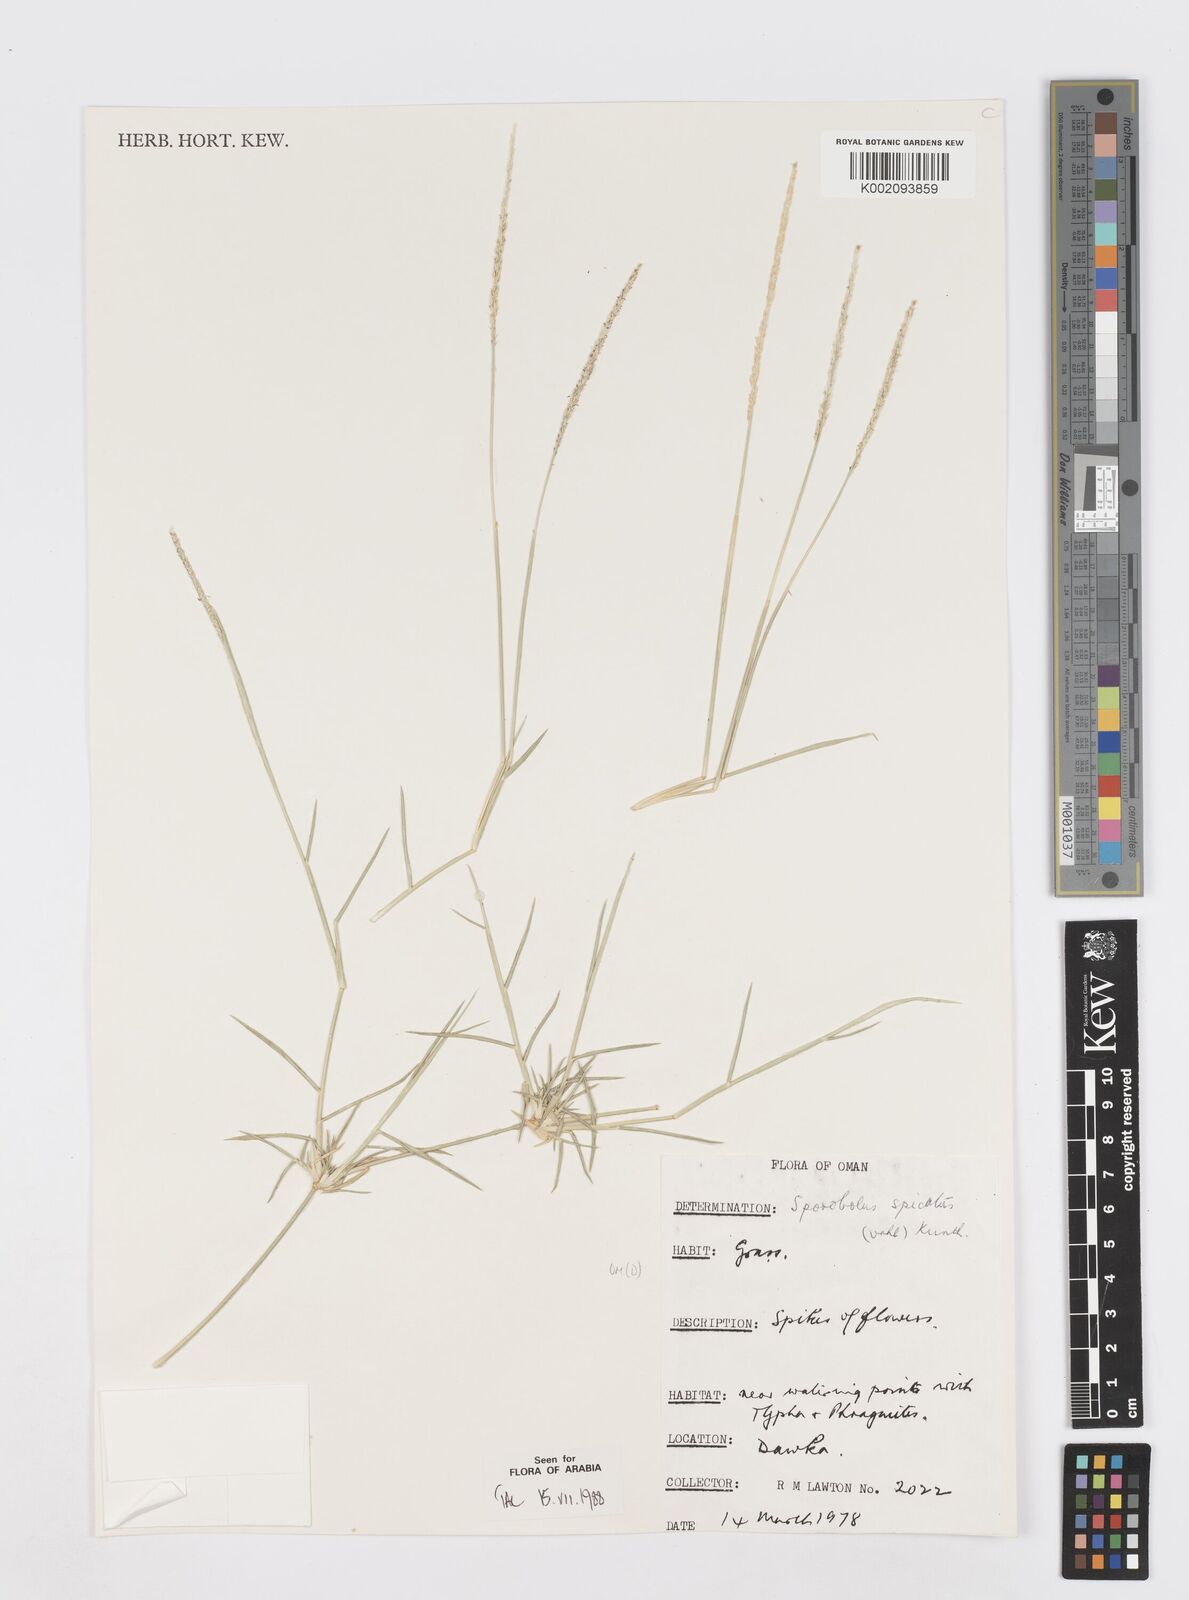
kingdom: Plantae
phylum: Tracheophyta
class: Liliopsida
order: Poales
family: Poaceae
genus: Sporobolus
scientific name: Sporobolus spicatus
